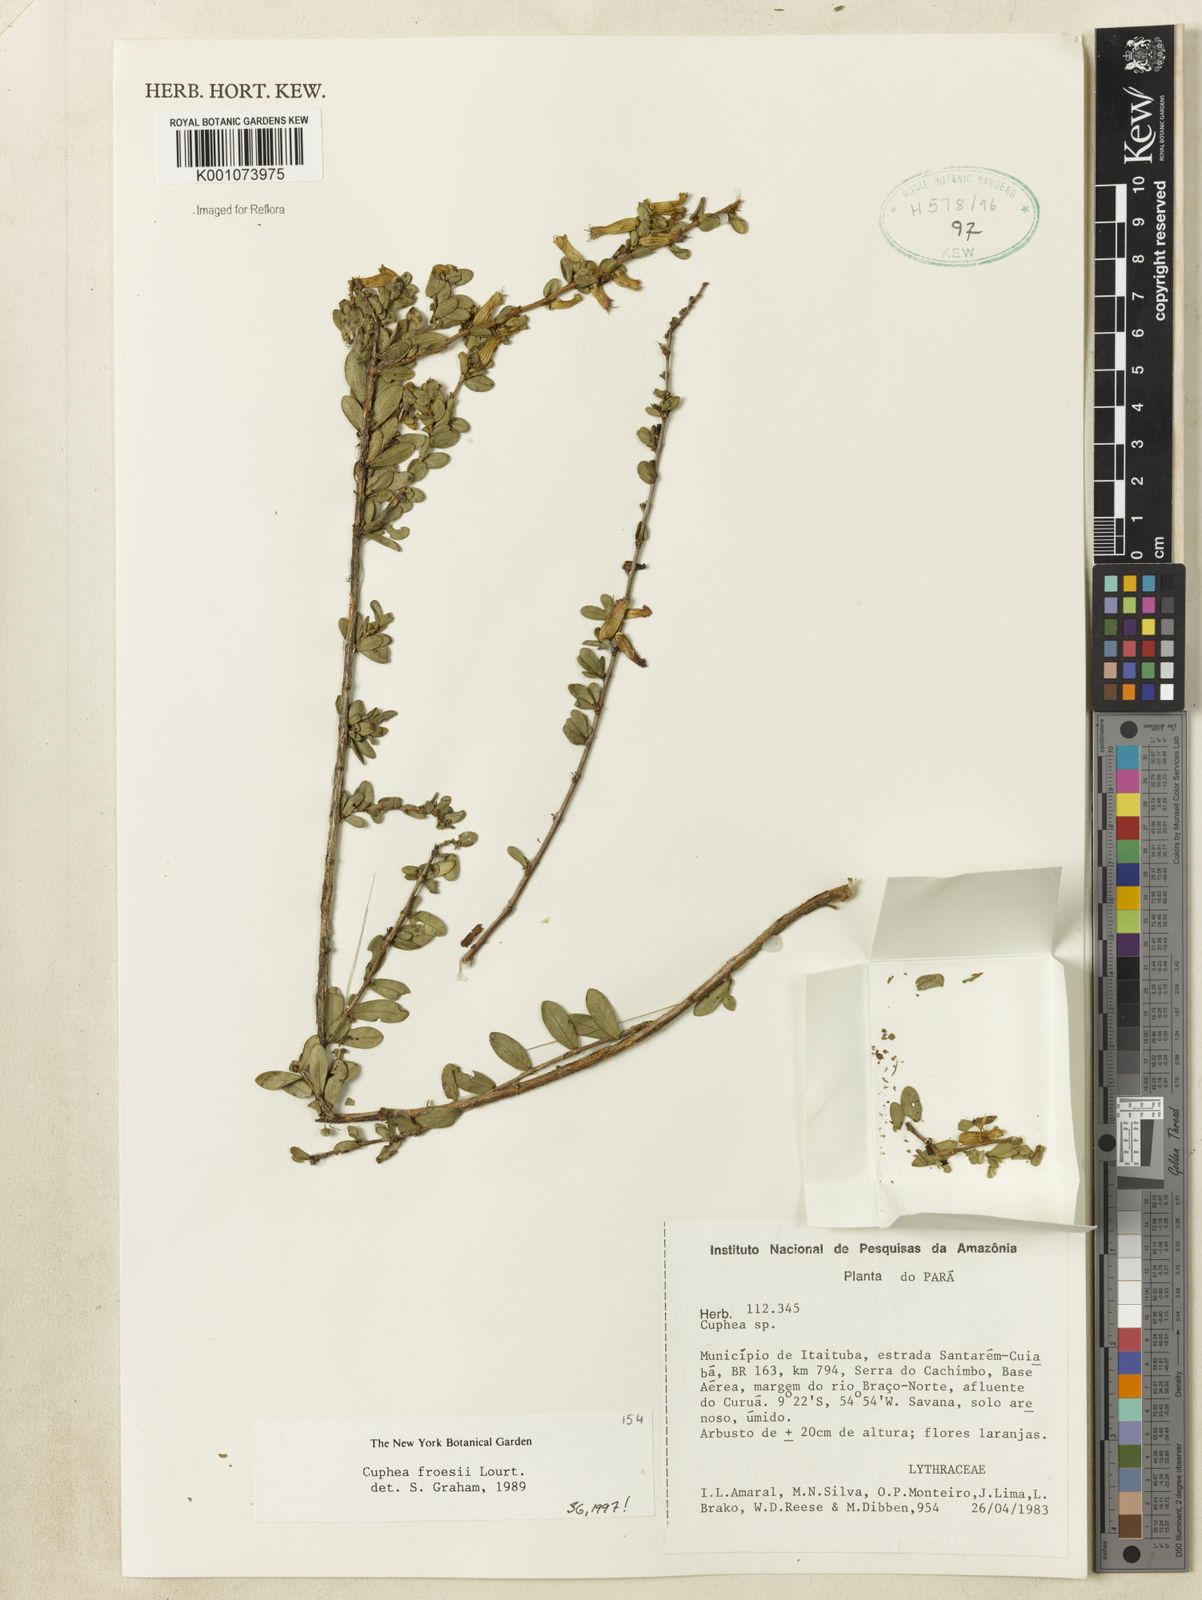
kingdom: Plantae
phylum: Tracheophyta
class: Magnoliopsida
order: Myrtales
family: Lythraceae
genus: Cuphea
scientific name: Cuphea froesii
